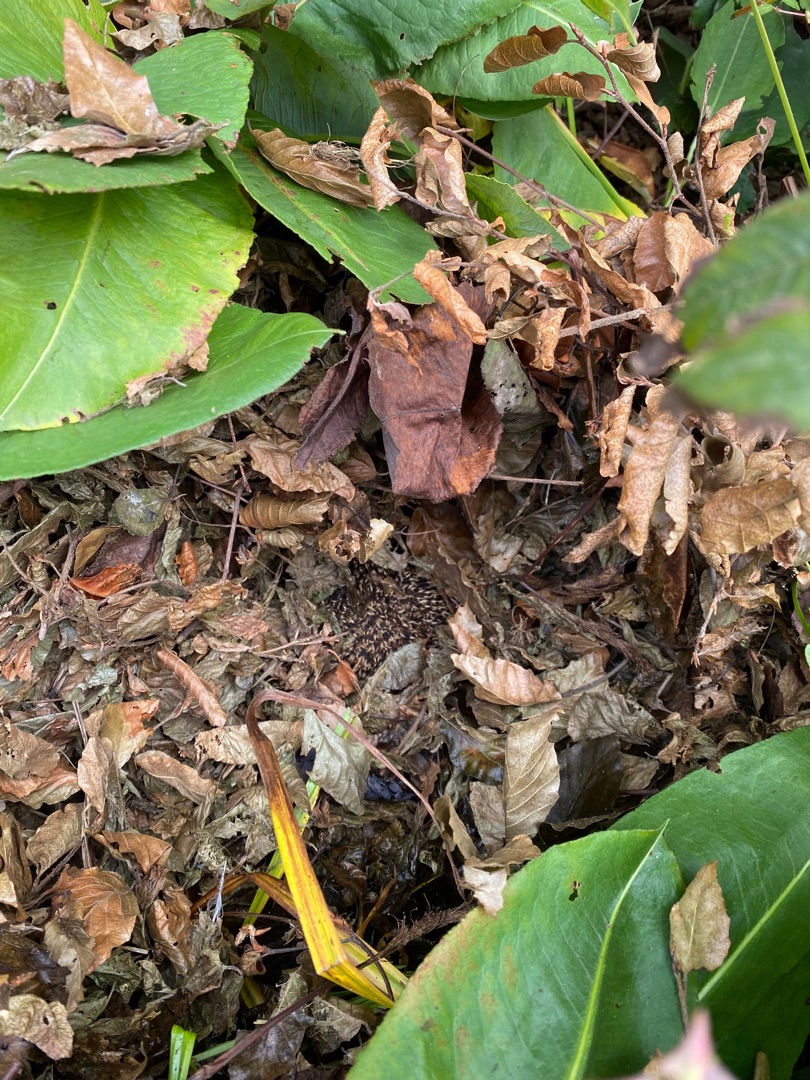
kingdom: Animalia
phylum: Chordata
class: Mammalia
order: Erinaceomorpha
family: Erinaceidae
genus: Erinaceus
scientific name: Erinaceus europaeus
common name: Pindsvin
